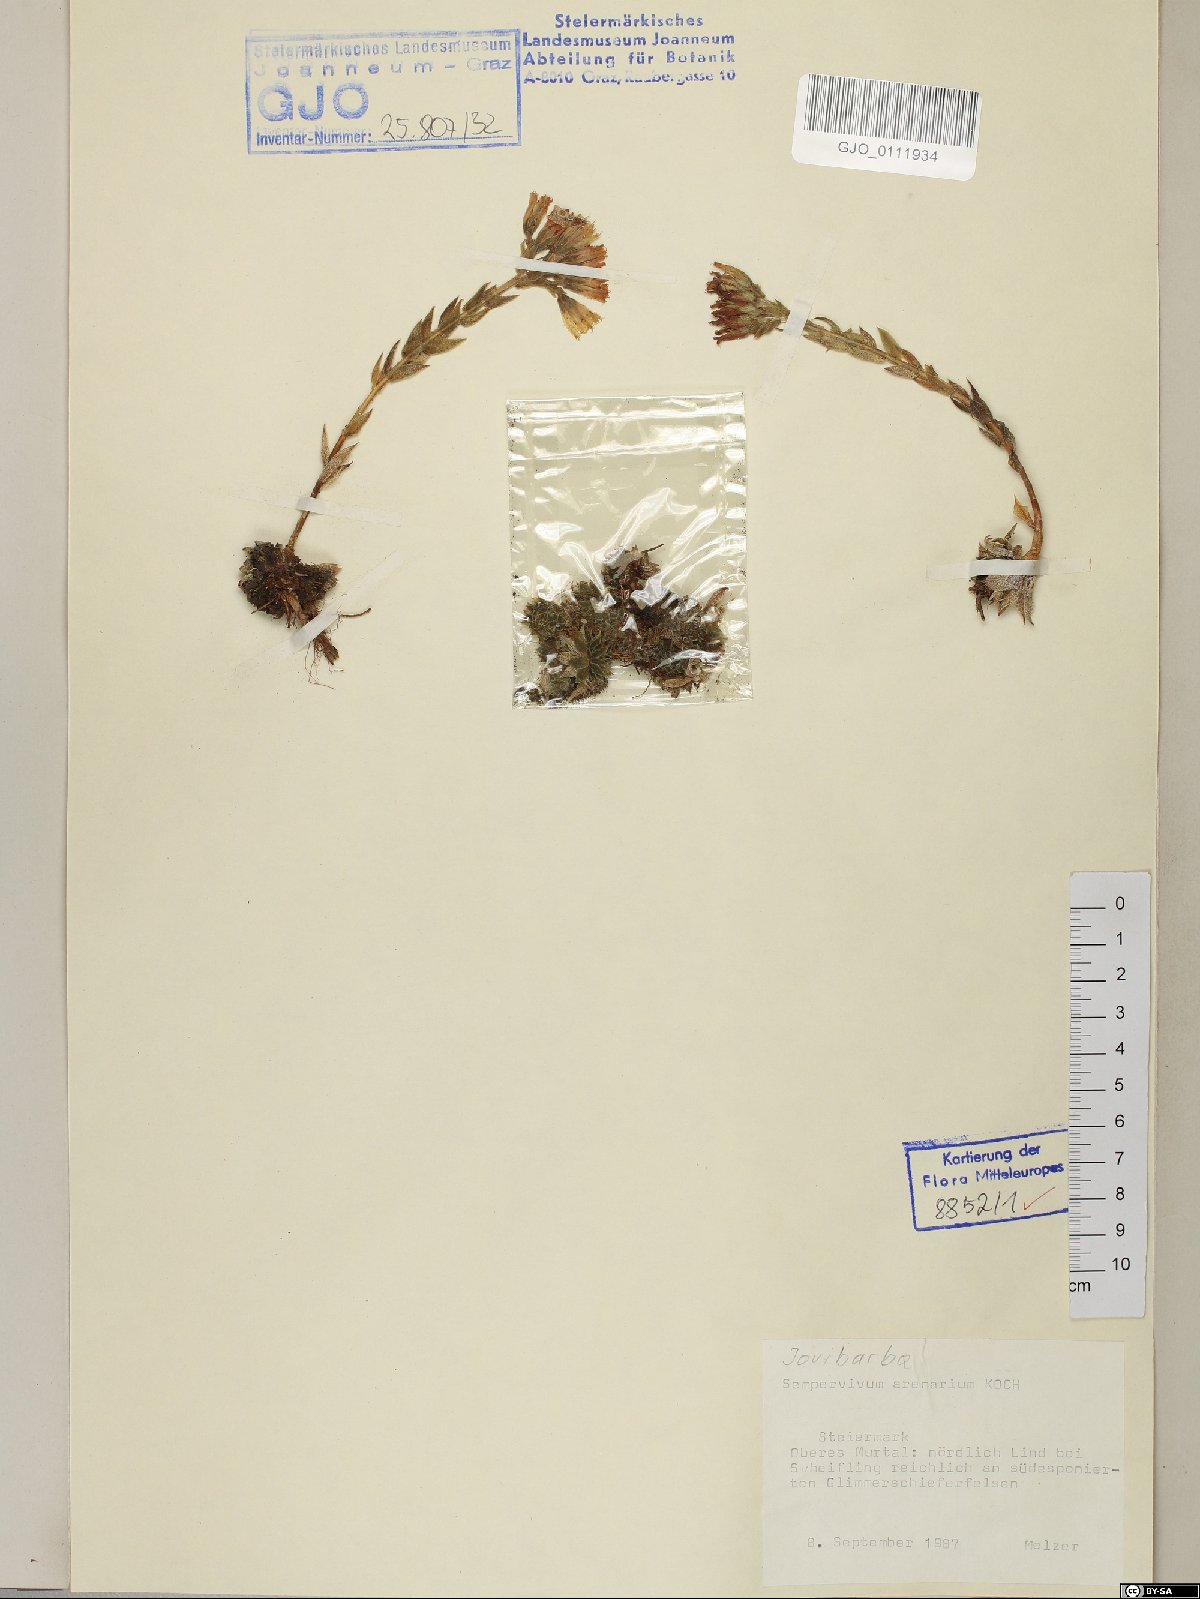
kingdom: Plantae
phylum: Tracheophyta
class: Magnoliopsida
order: Saxifragales
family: Crassulaceae
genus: Sempervivum
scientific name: Sempervivum globiferum
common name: Rolling hen-and-chicks
